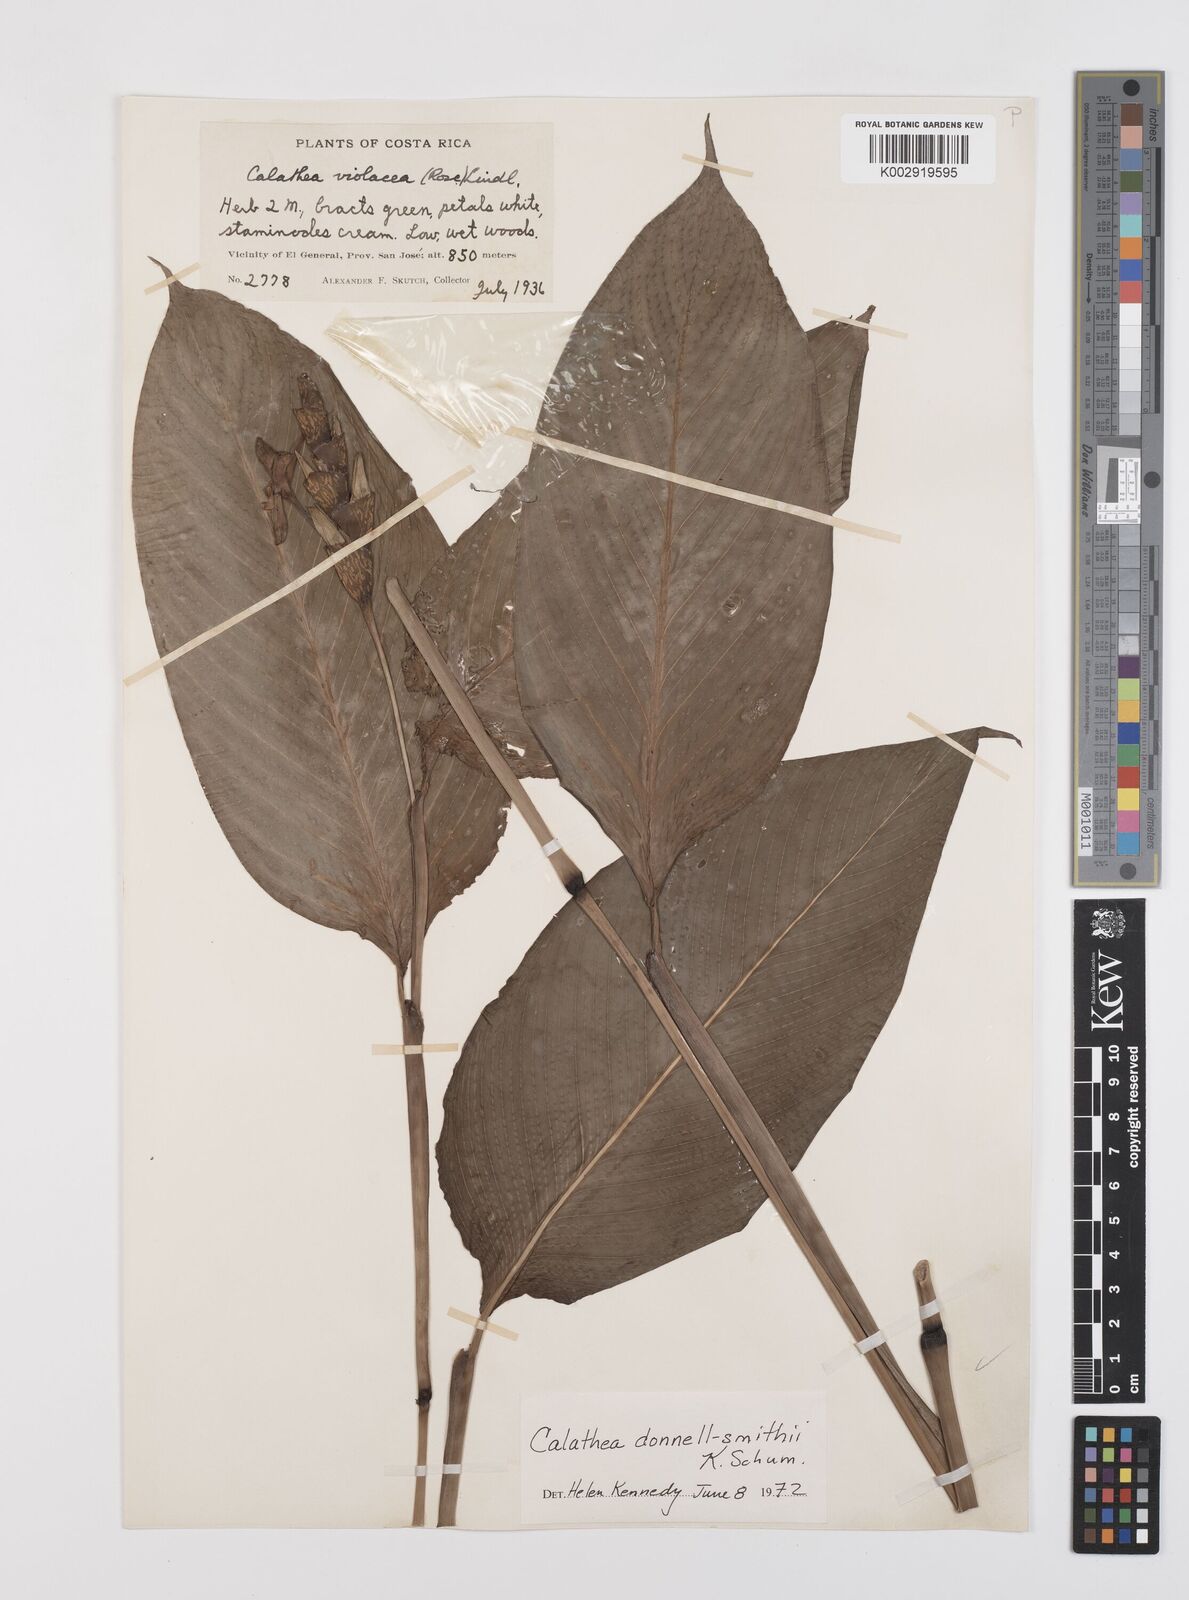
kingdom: Plantae
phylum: Tracheophyta
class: Liliopsida
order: Zingiberales
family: Marantaceae
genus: Goeppertia
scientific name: Goeppertia donnell-smithii
